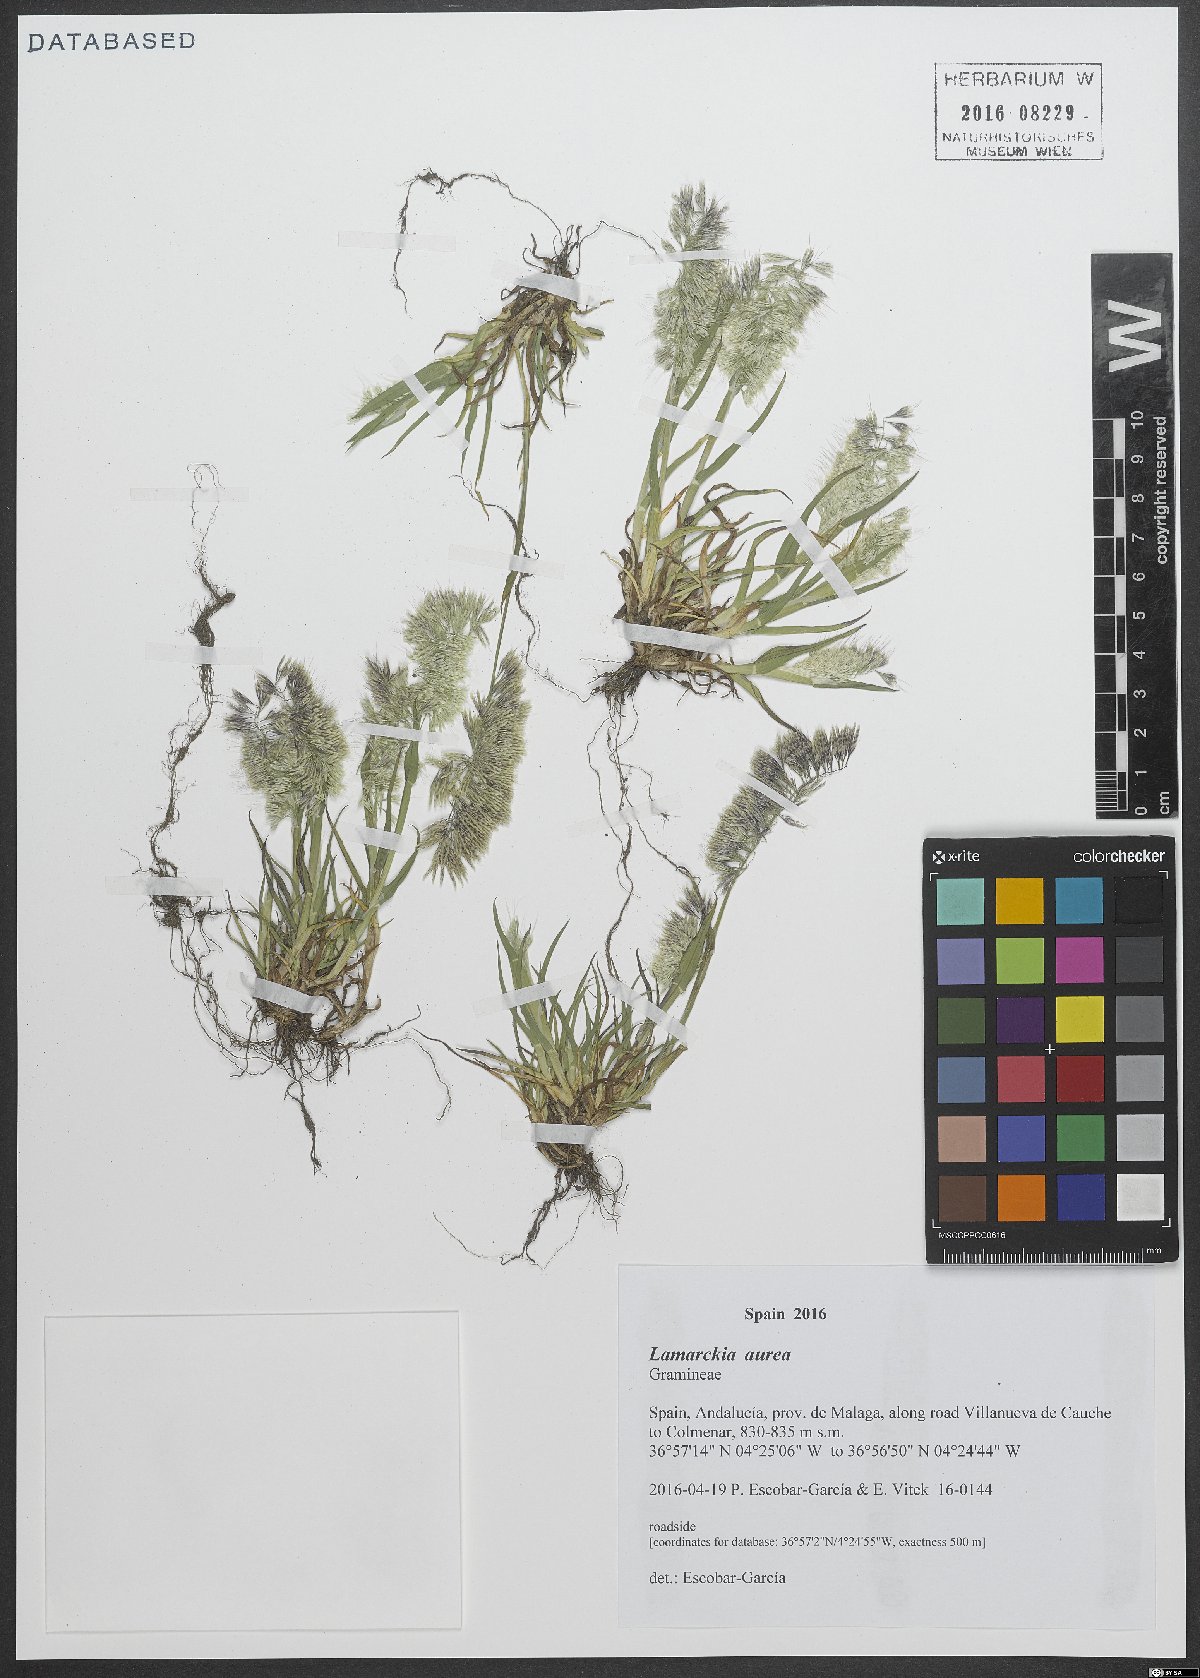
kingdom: Plantae
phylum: Tracheophyta
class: Liliopsida
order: Poales
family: Poaceae
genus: Lamarckia
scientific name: Lamarckia aurea
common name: Golden dog's-tail
